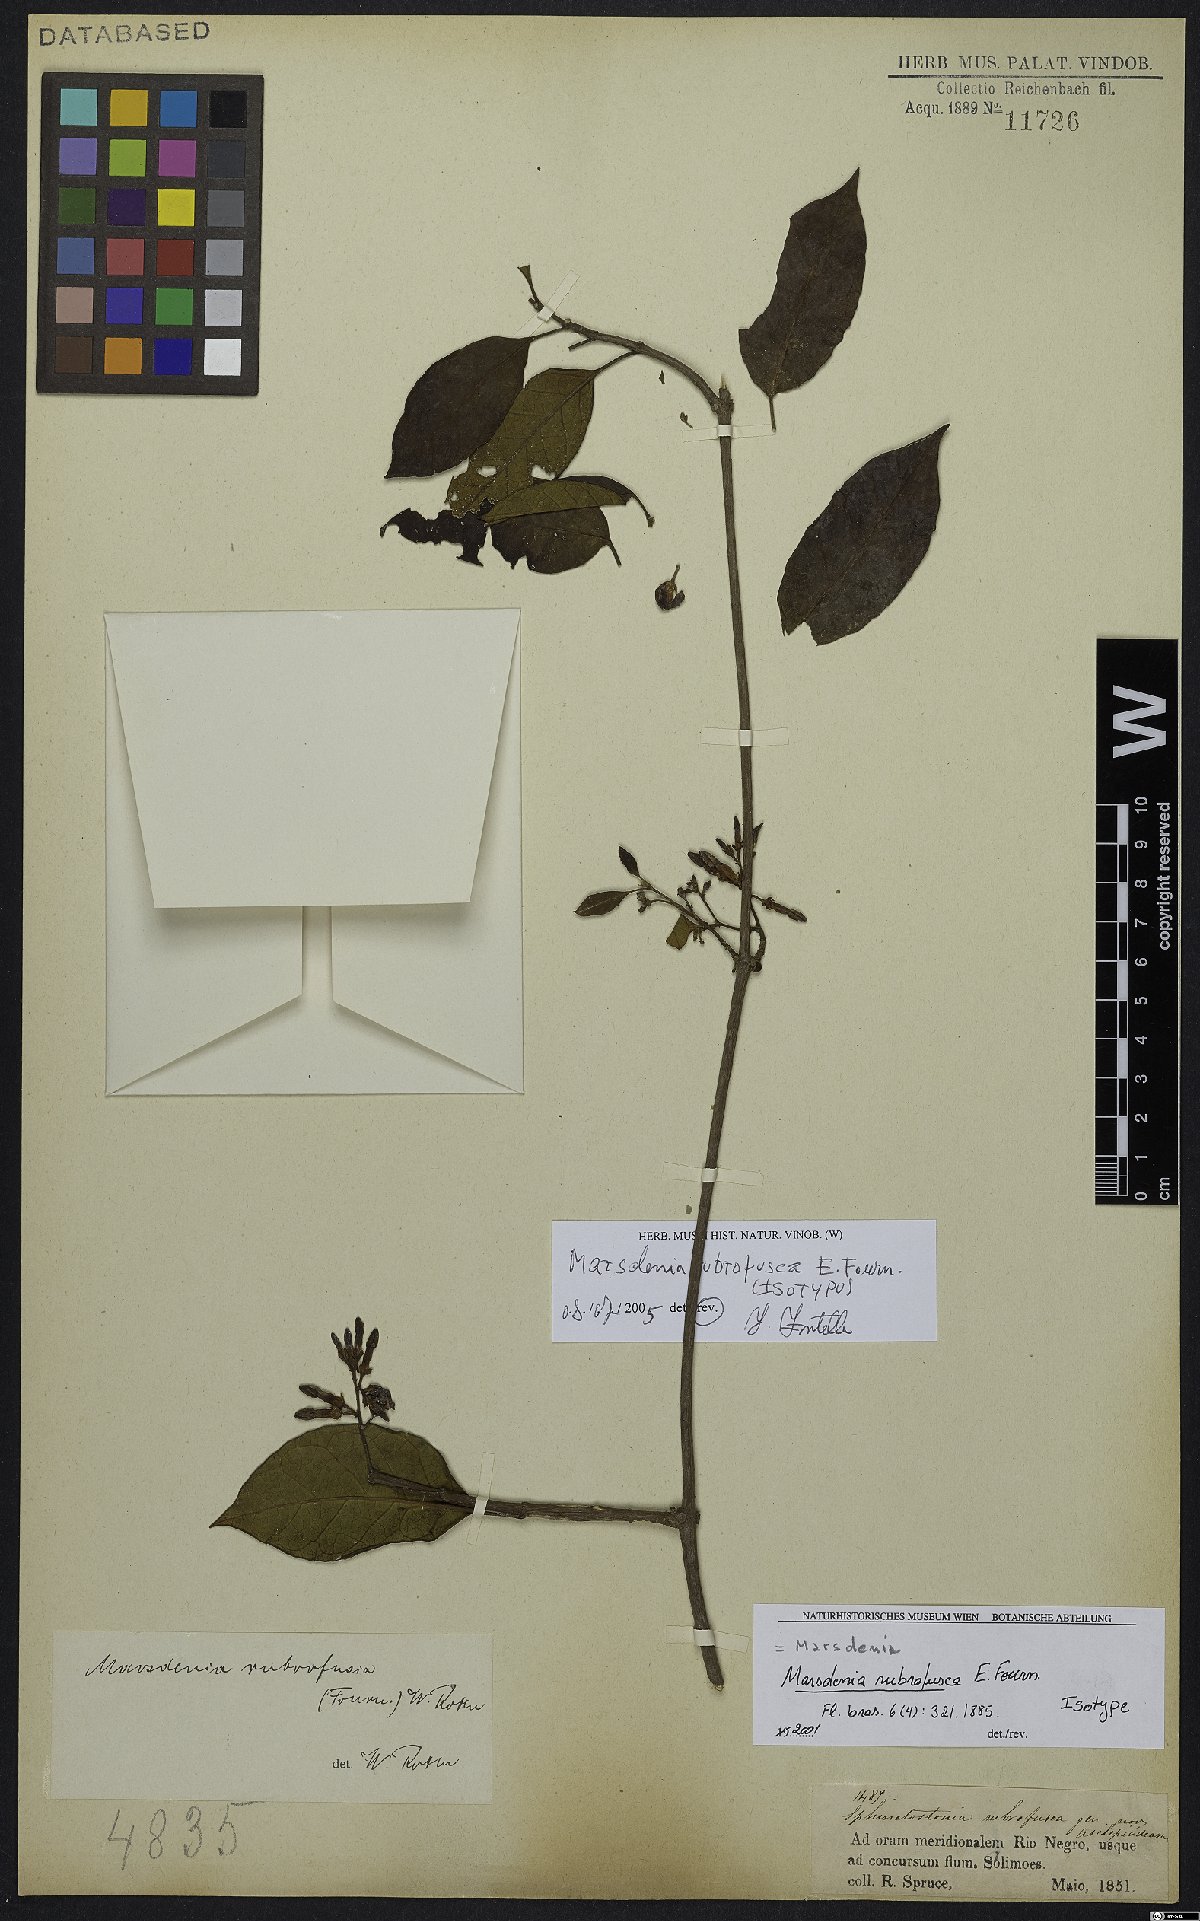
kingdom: Plantae
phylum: Tracheophyta
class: Magnoliopsida
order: Gentianales
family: Apocynaceae
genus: Ruehssia
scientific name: Ruehssia rubrofusca
